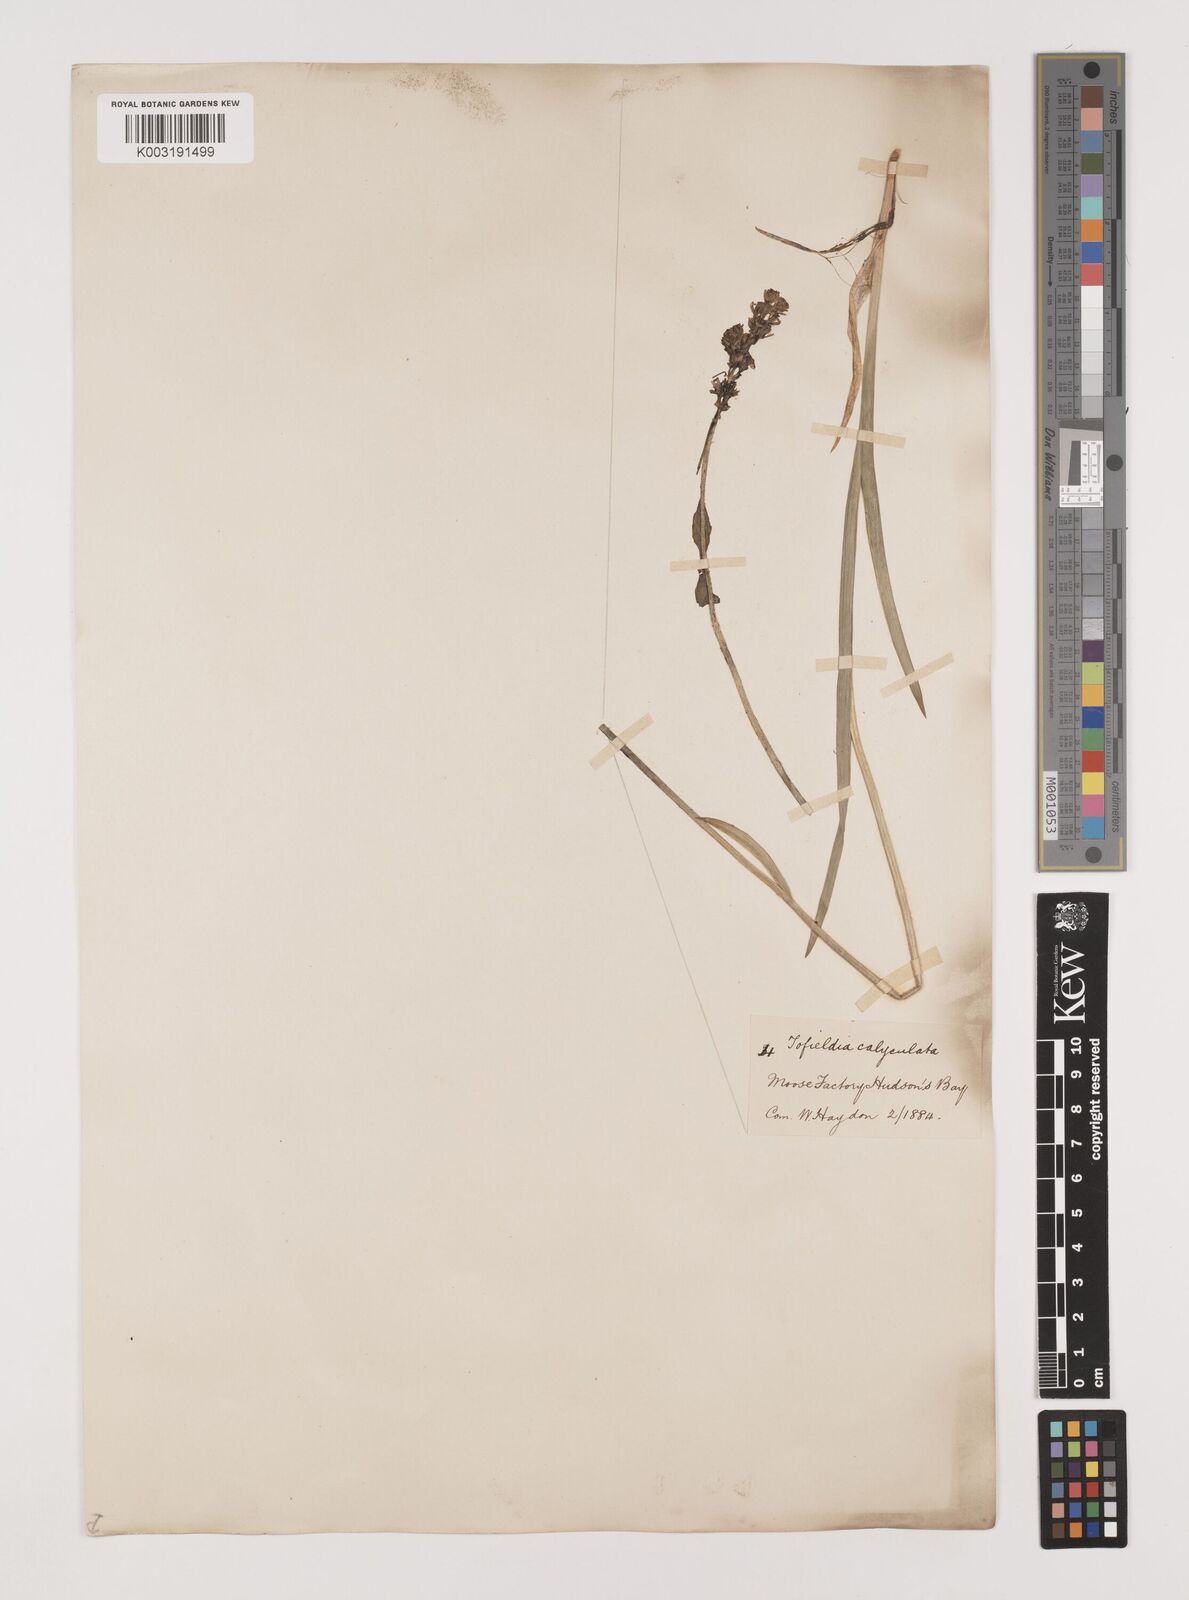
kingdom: Plantae
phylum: Tracheophyta
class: Liliopsida
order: Alismatales
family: Tofieldiaceae
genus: Tofieldia
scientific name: Tofieldia
